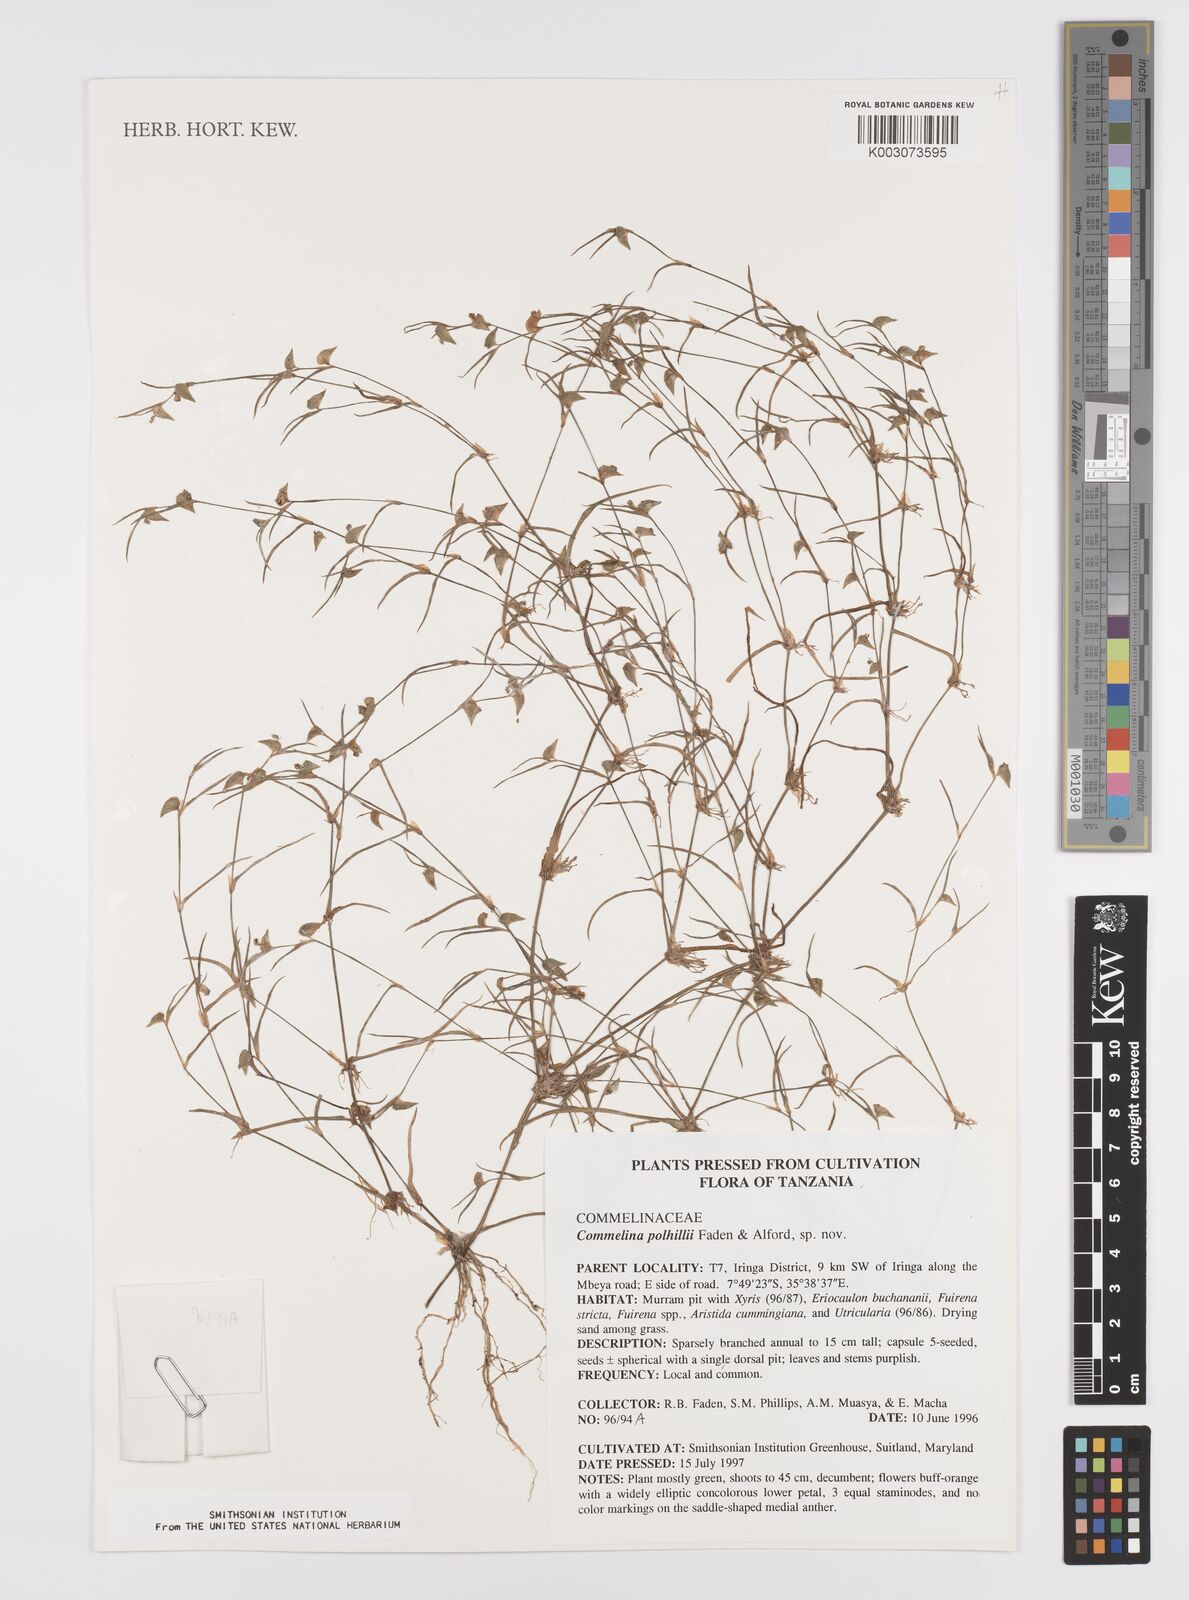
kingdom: Plantae
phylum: Tracheophyta
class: Liliopsida
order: Commelinales
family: Commelinaceae
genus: Commelina
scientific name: Commelina polhillii
